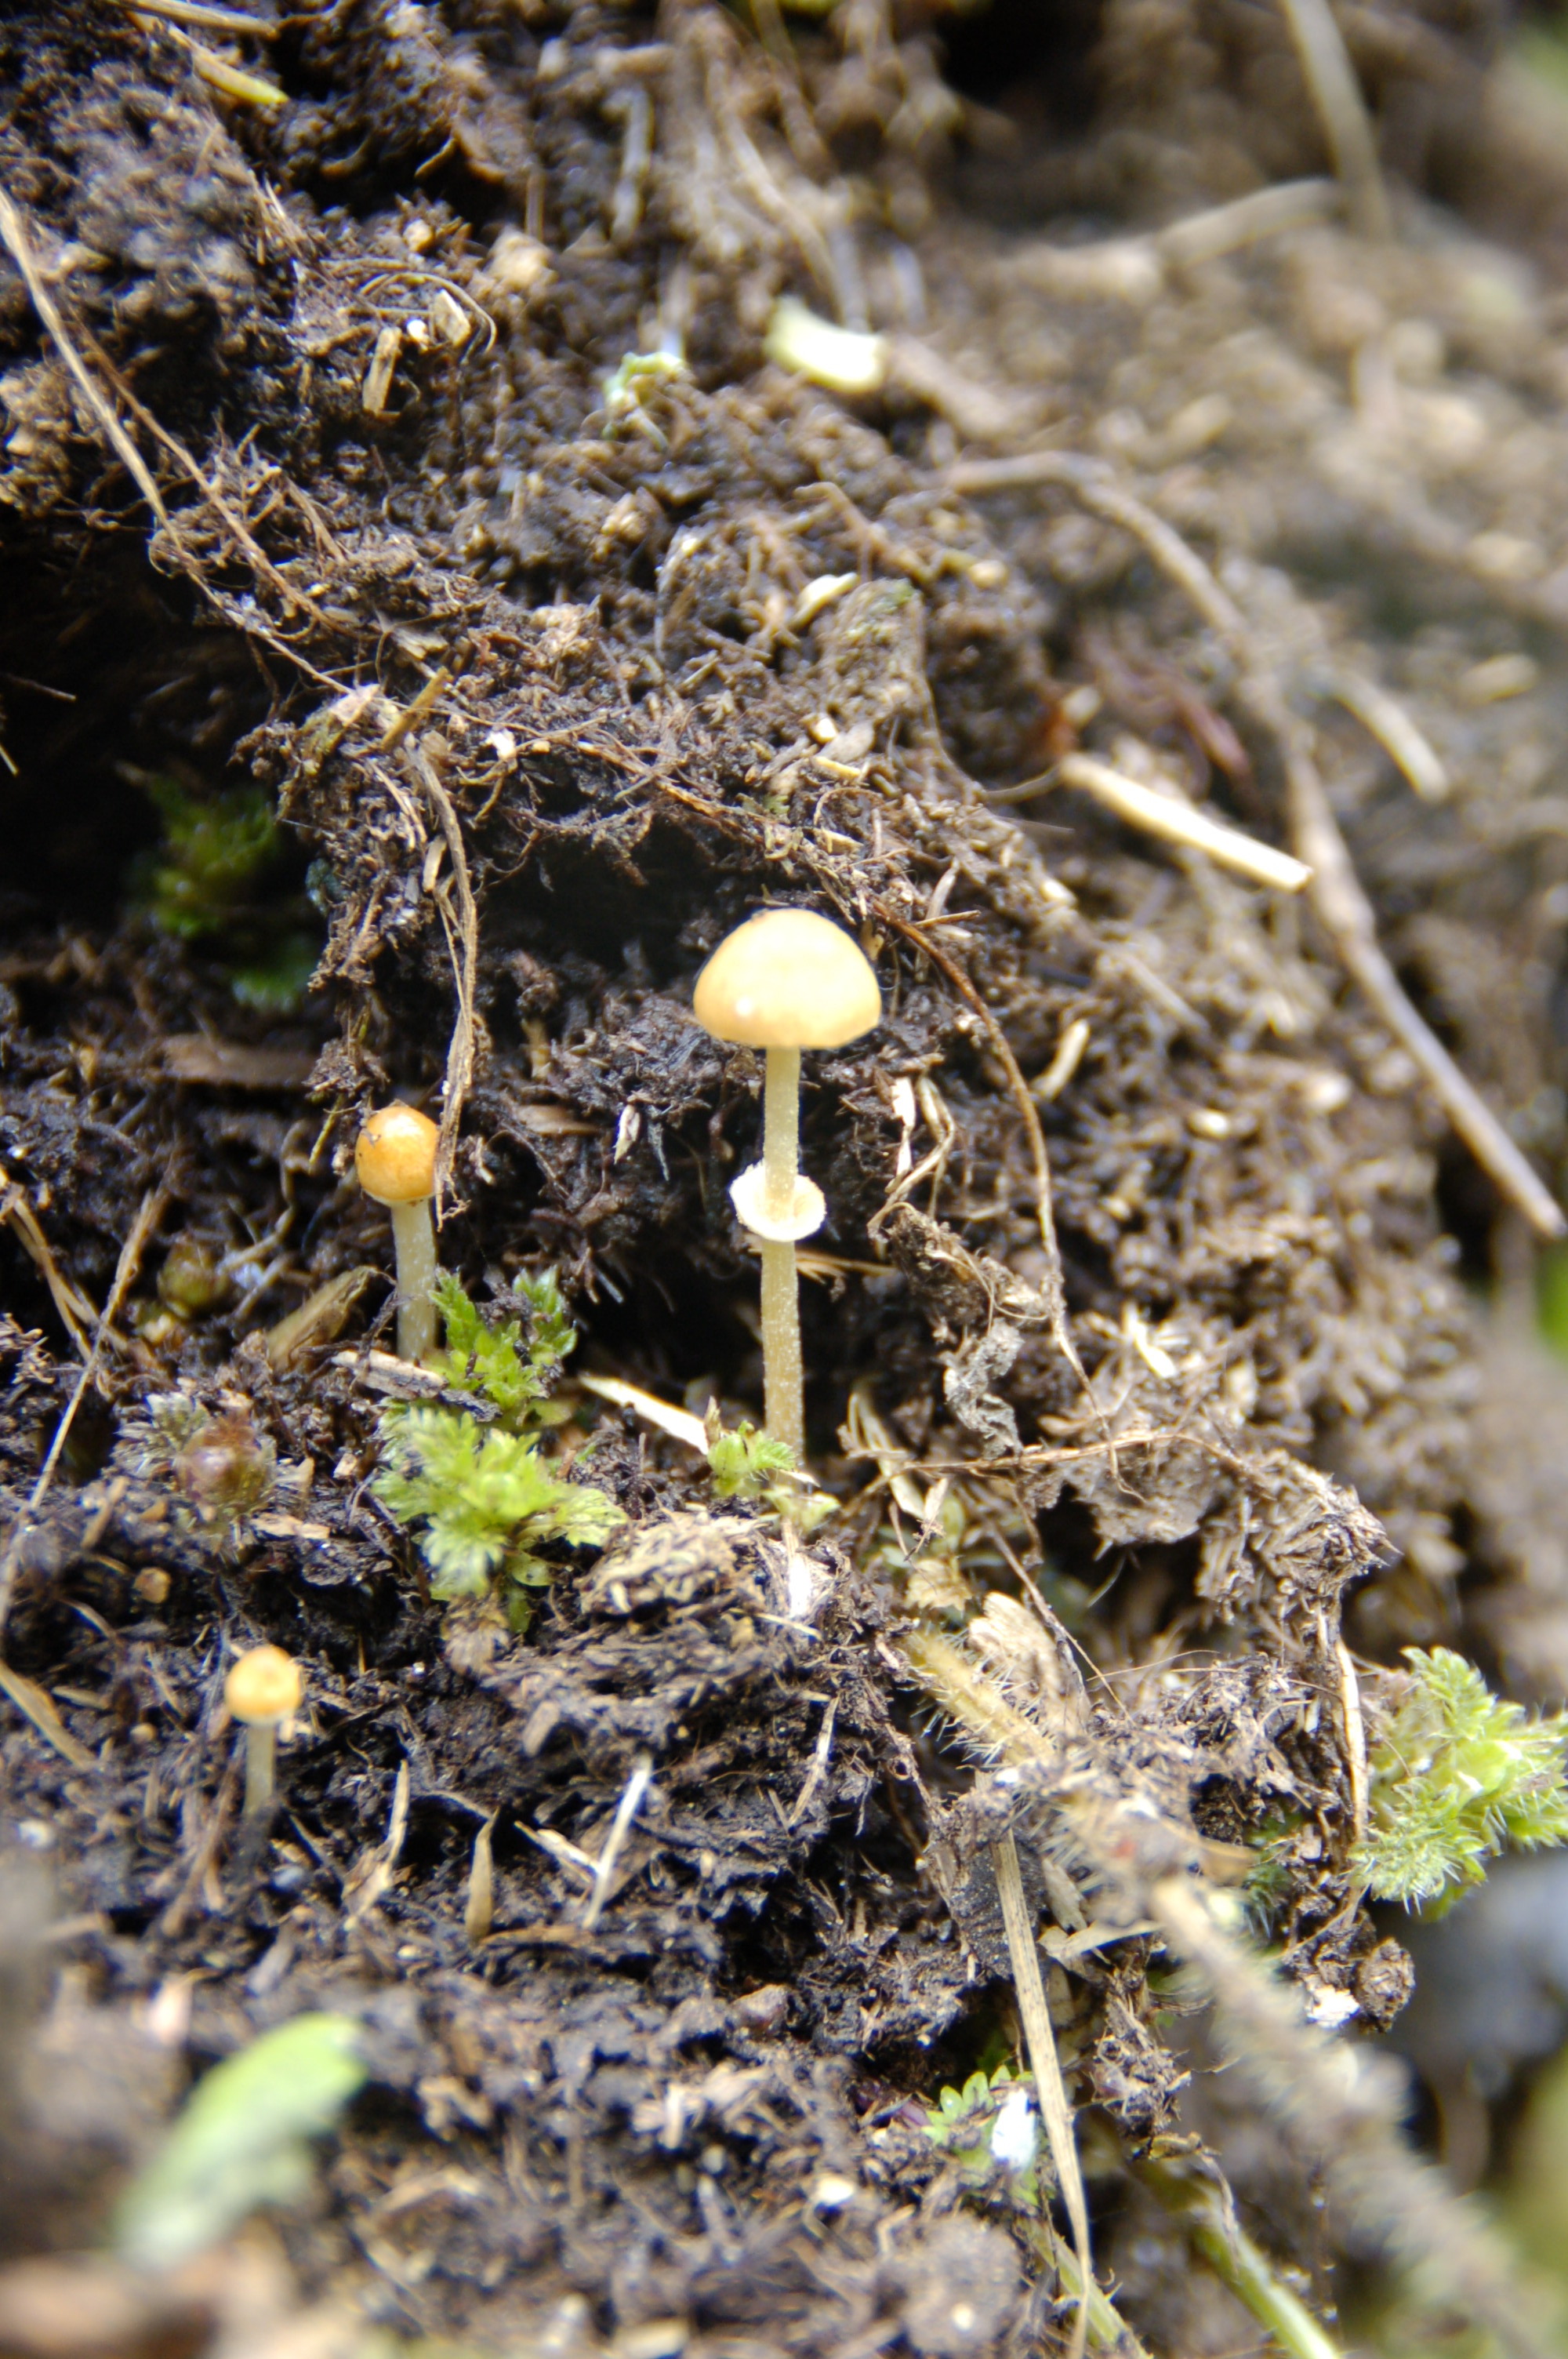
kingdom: Fungi
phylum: Basidiomycota
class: Agaricomycetes
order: Agaricales
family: Bolbitiaceae
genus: Pholiotina
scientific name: Pholiotina teneroides
